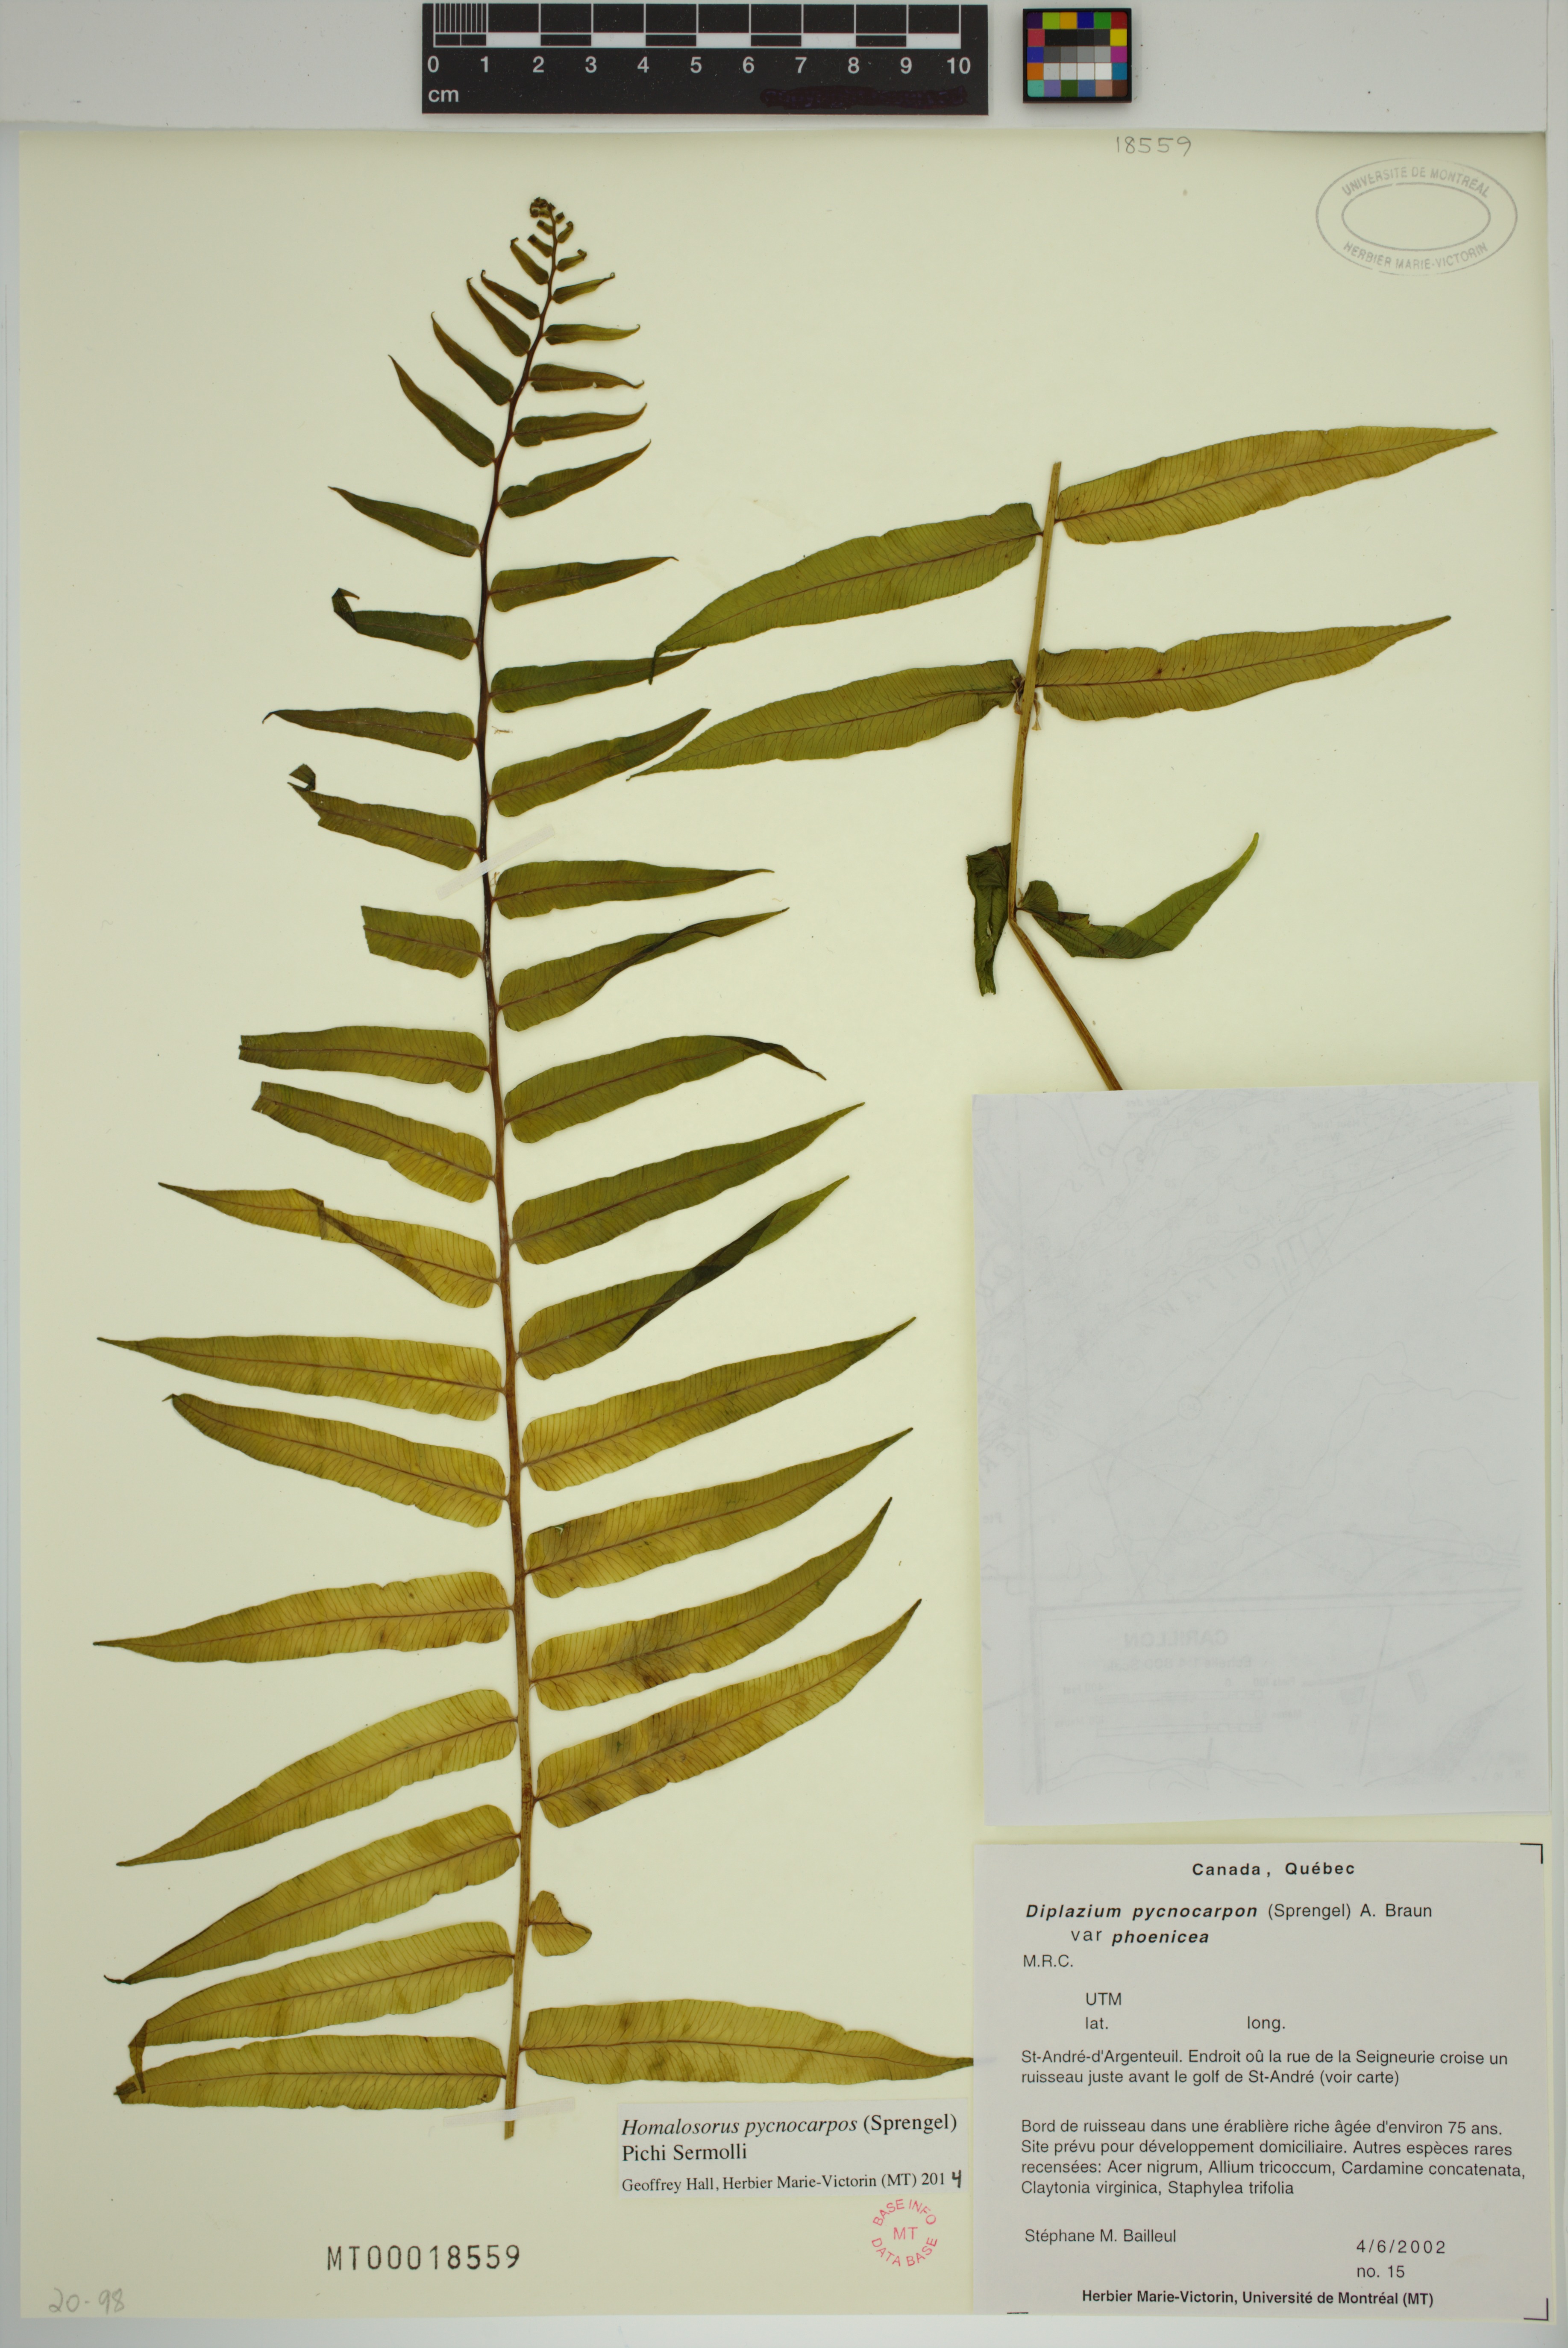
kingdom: Plantae
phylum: Tracheophyta
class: Polypodiopsida
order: Polypodiales
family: Diplaziopsidaceae
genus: Homalosorus
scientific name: Homalosorus pycnocarpos
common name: Glade fern
